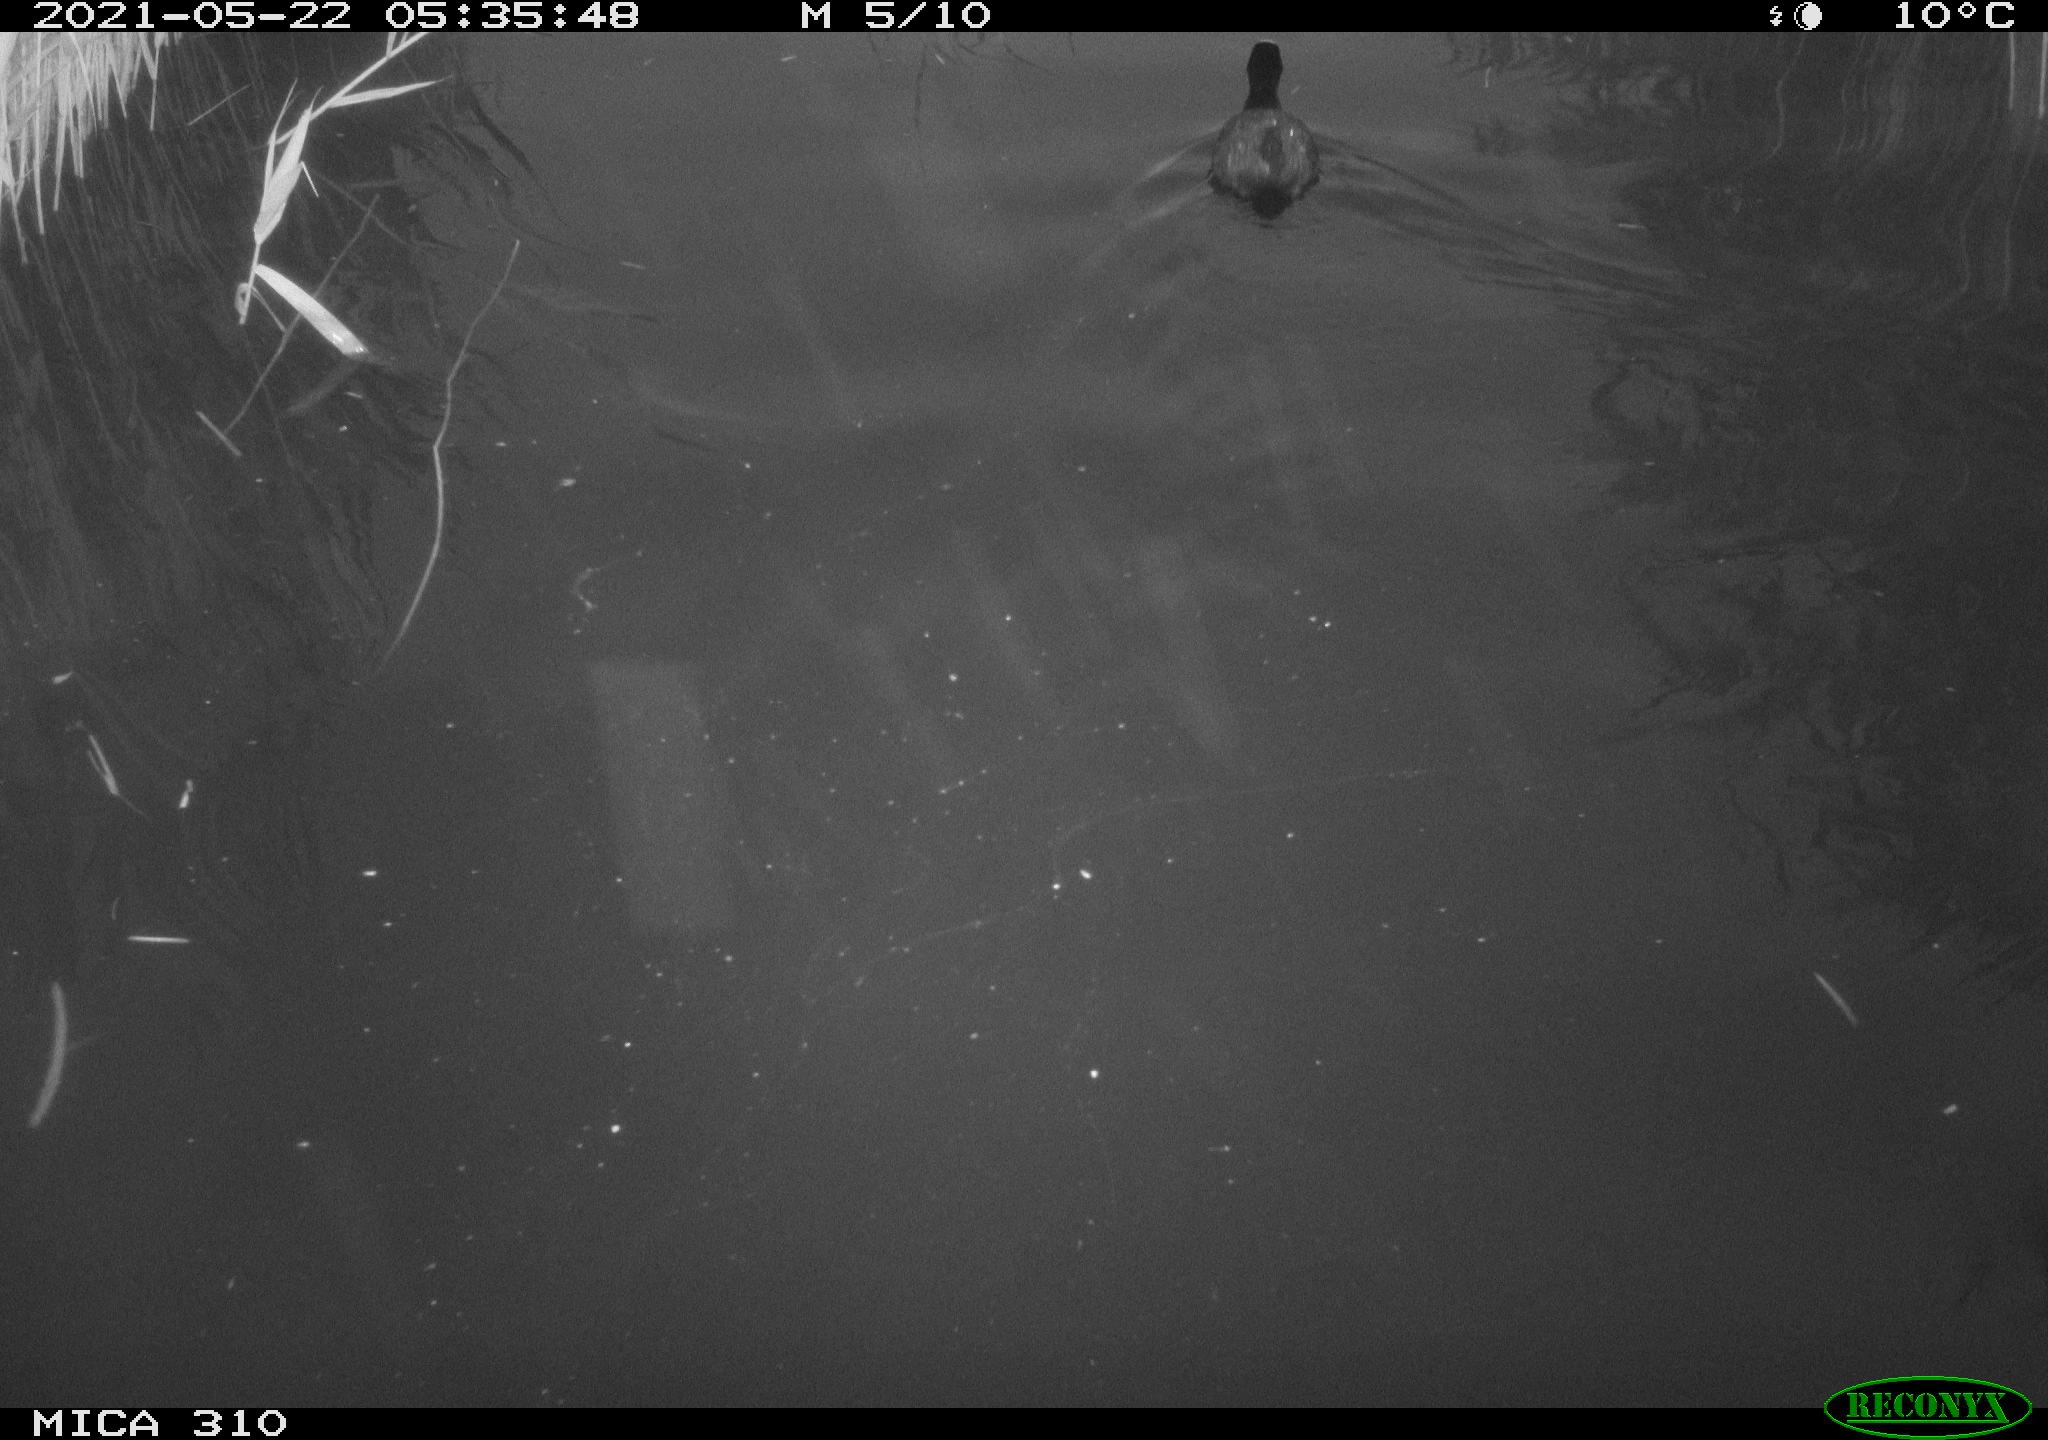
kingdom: Animalia
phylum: Chordata
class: Aves
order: Gruiformes
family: Rallidae
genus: Fulica
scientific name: Fulica atra
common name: Eurasian coot
